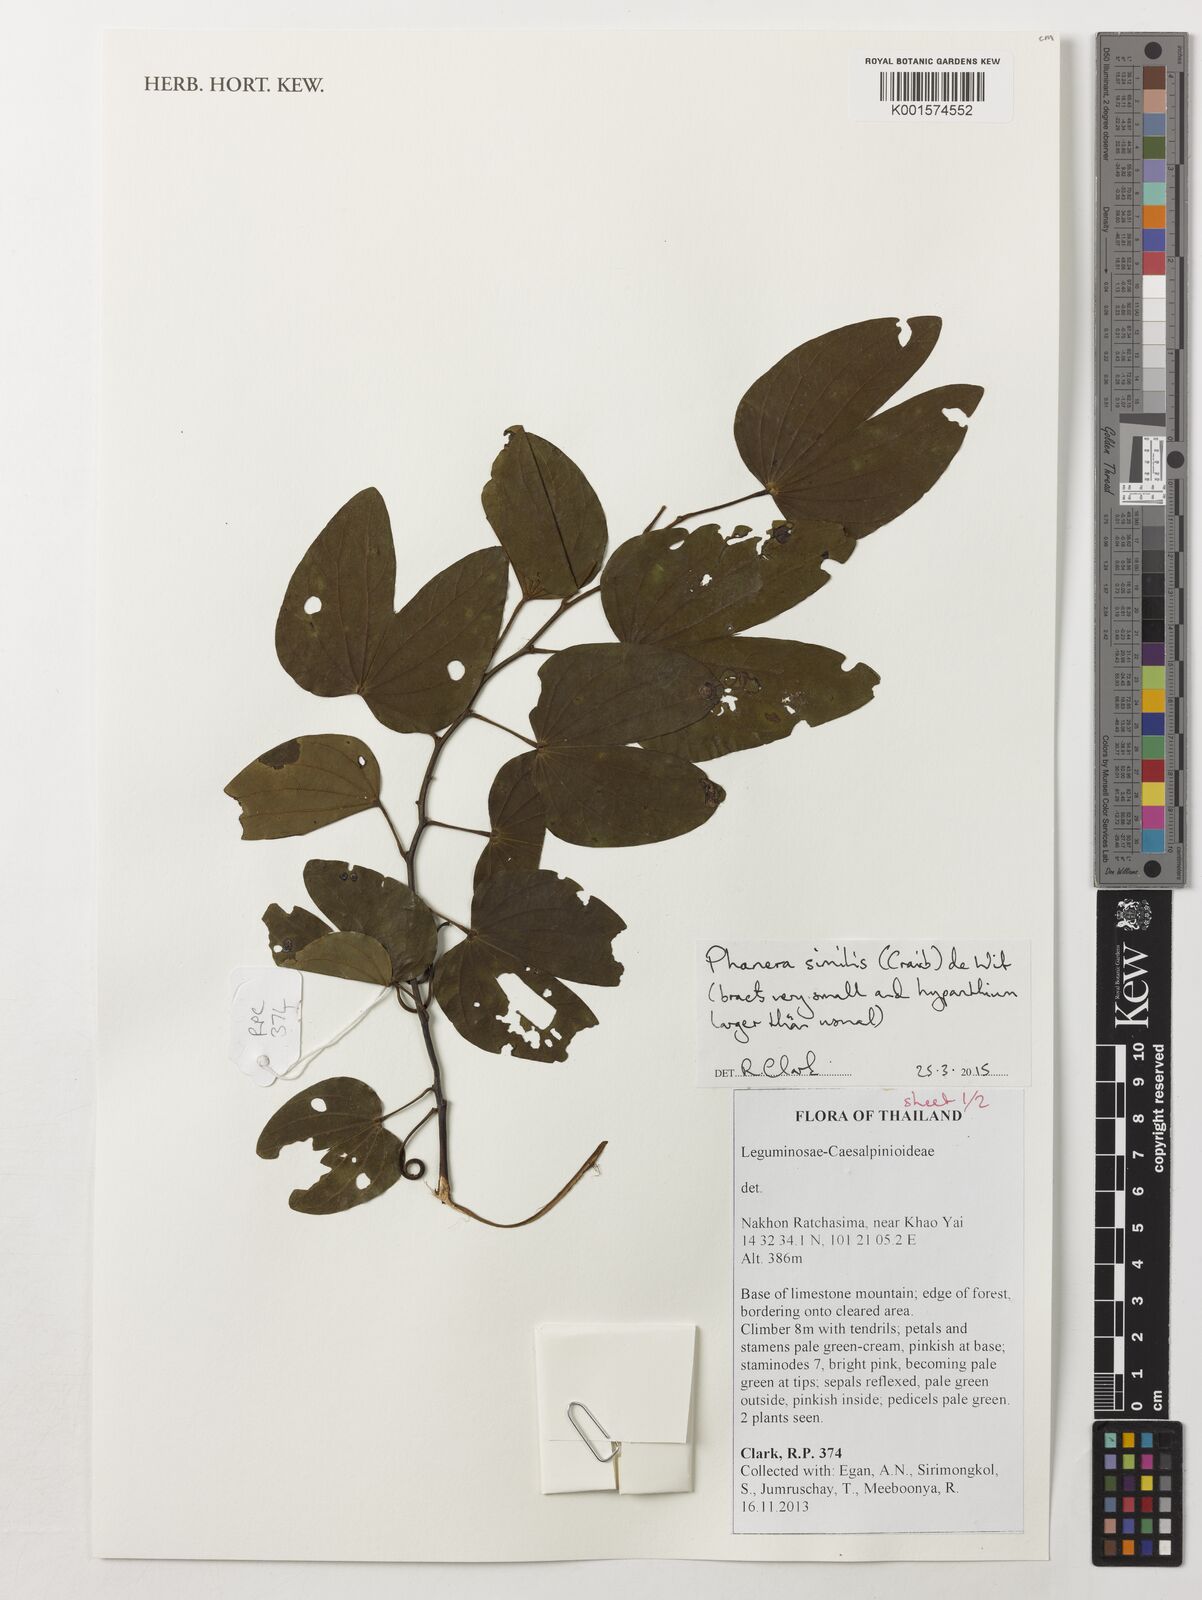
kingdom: Plantae
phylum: Tracheophyta
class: Magnoliopsida
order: Fabales
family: Fabaceae
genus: Phanera
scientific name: Phanera similis
